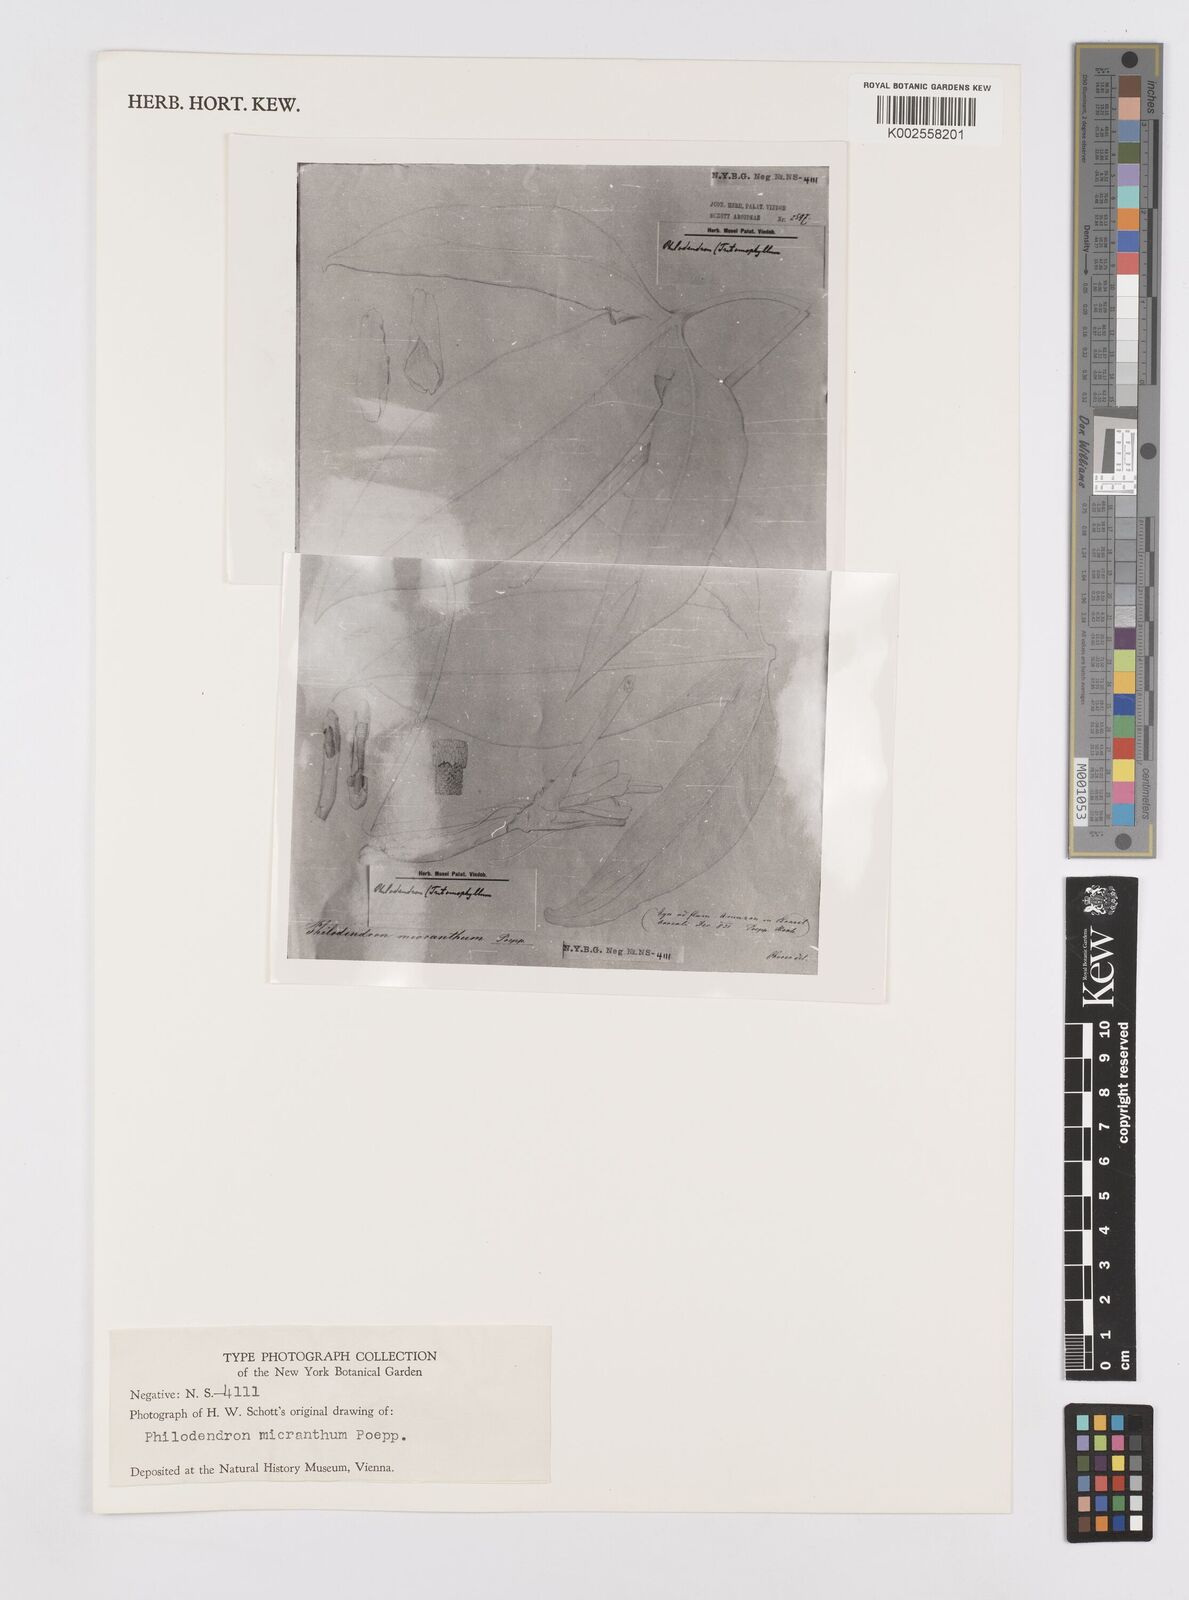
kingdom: Plantae
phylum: Tracheophyta
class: Liliopsida
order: Alismatales
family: Araceae
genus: Philodendron
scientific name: Philodendron micranthum
